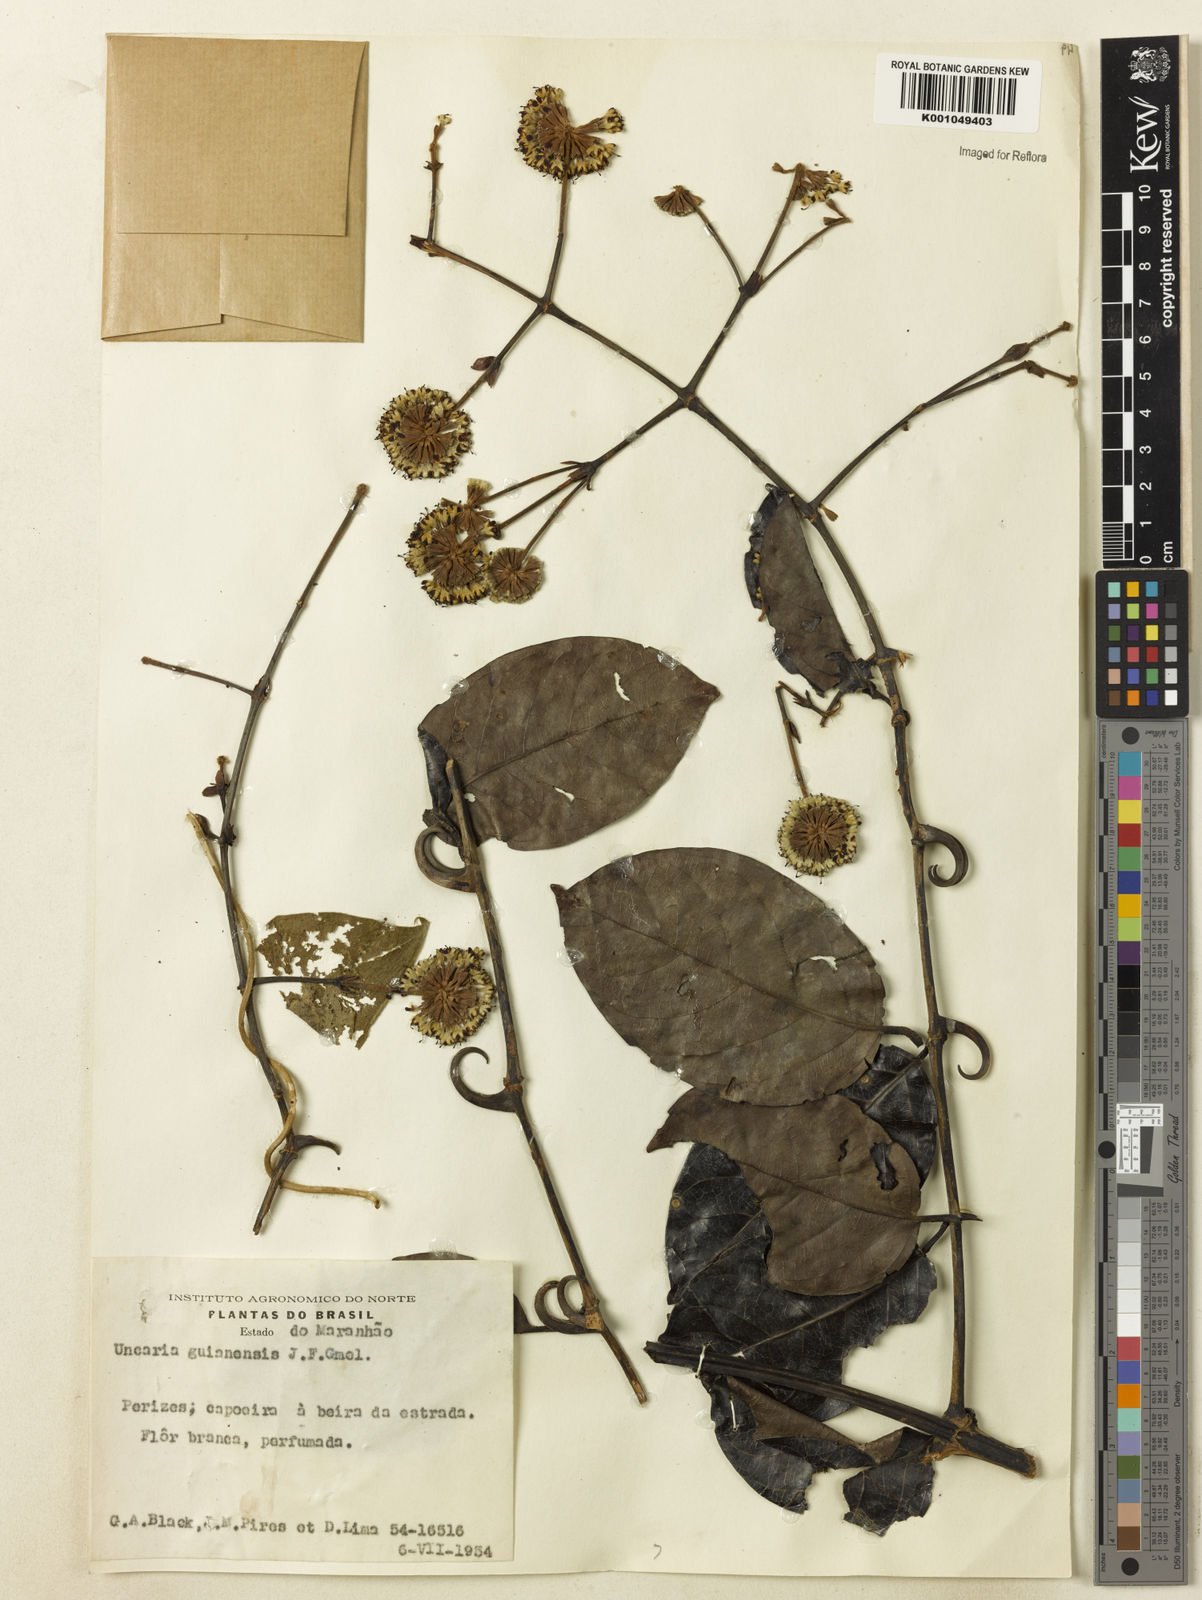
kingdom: Plantae
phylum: Tracheophyta
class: Magnoliopsida
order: Gentianales
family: Rubiaceae
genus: Uncaria
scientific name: Uncaria guianensis
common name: Cat's-claw
